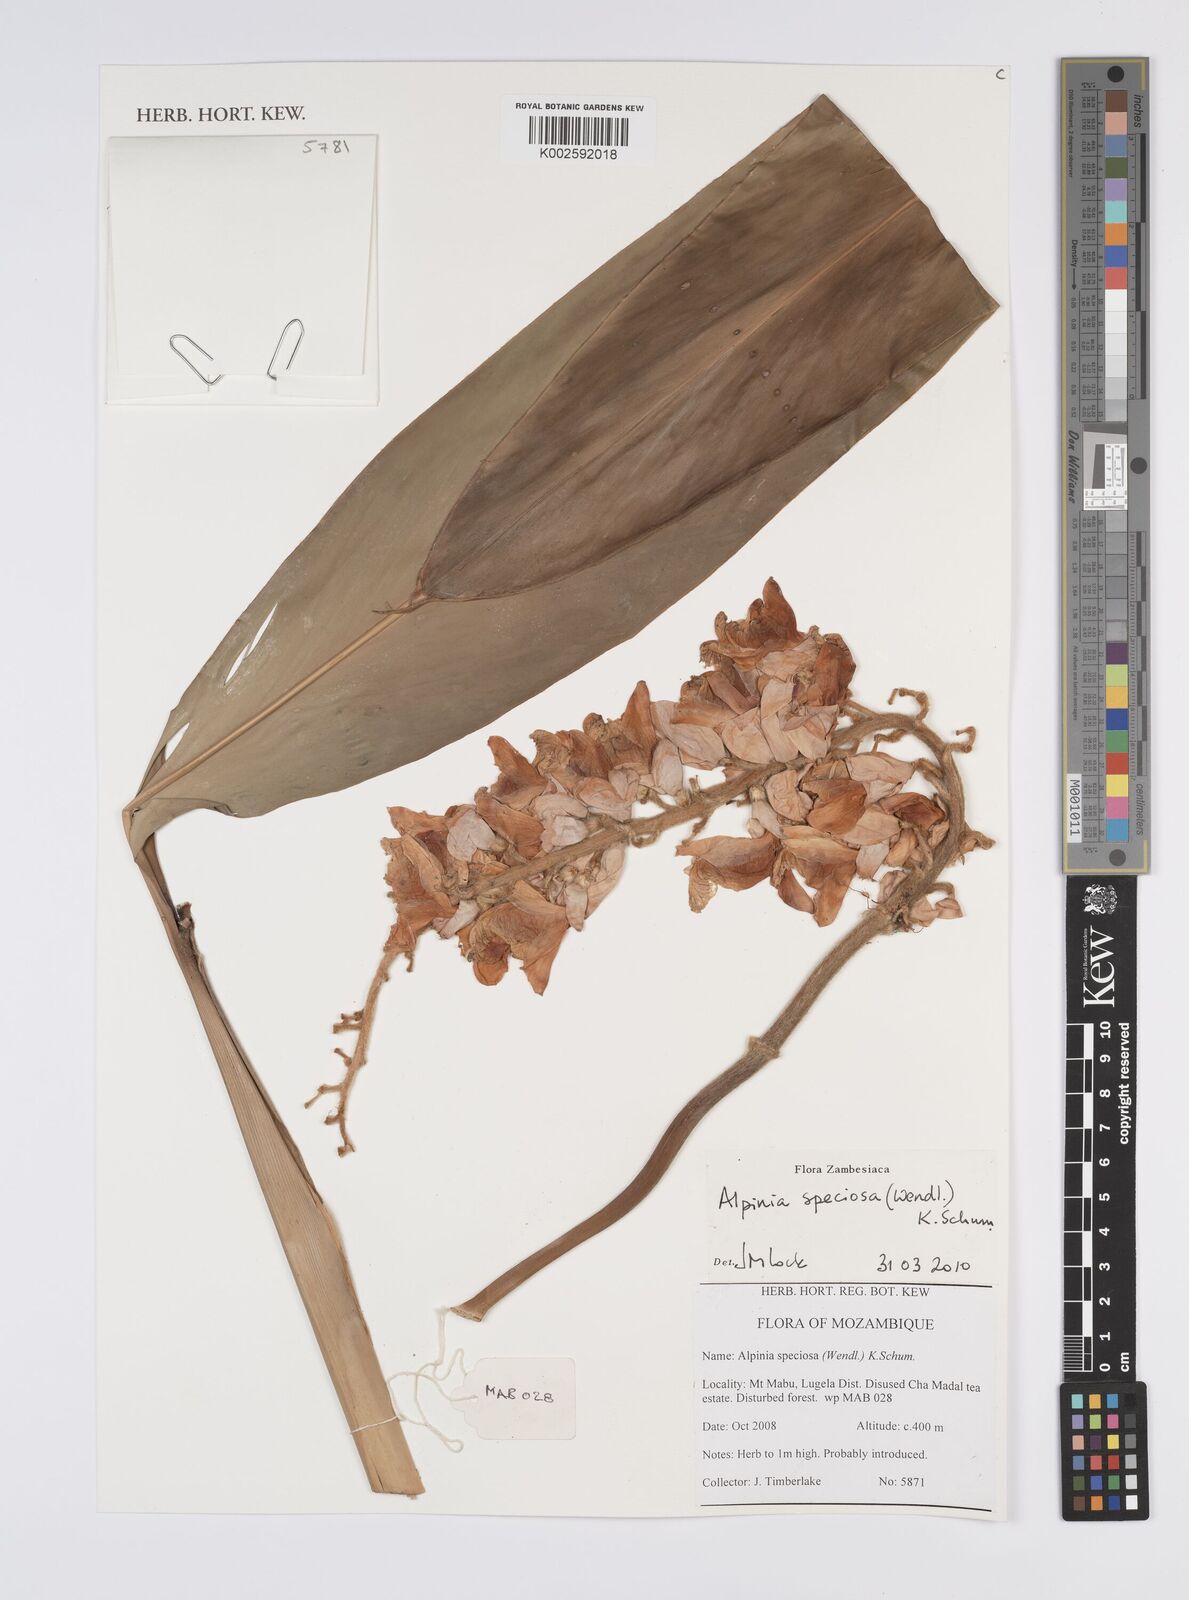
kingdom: Plantae
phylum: Tracheophyta
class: Liliopsida
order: Zingiberales
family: Zingiberaceae
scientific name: Zingiberaceae
